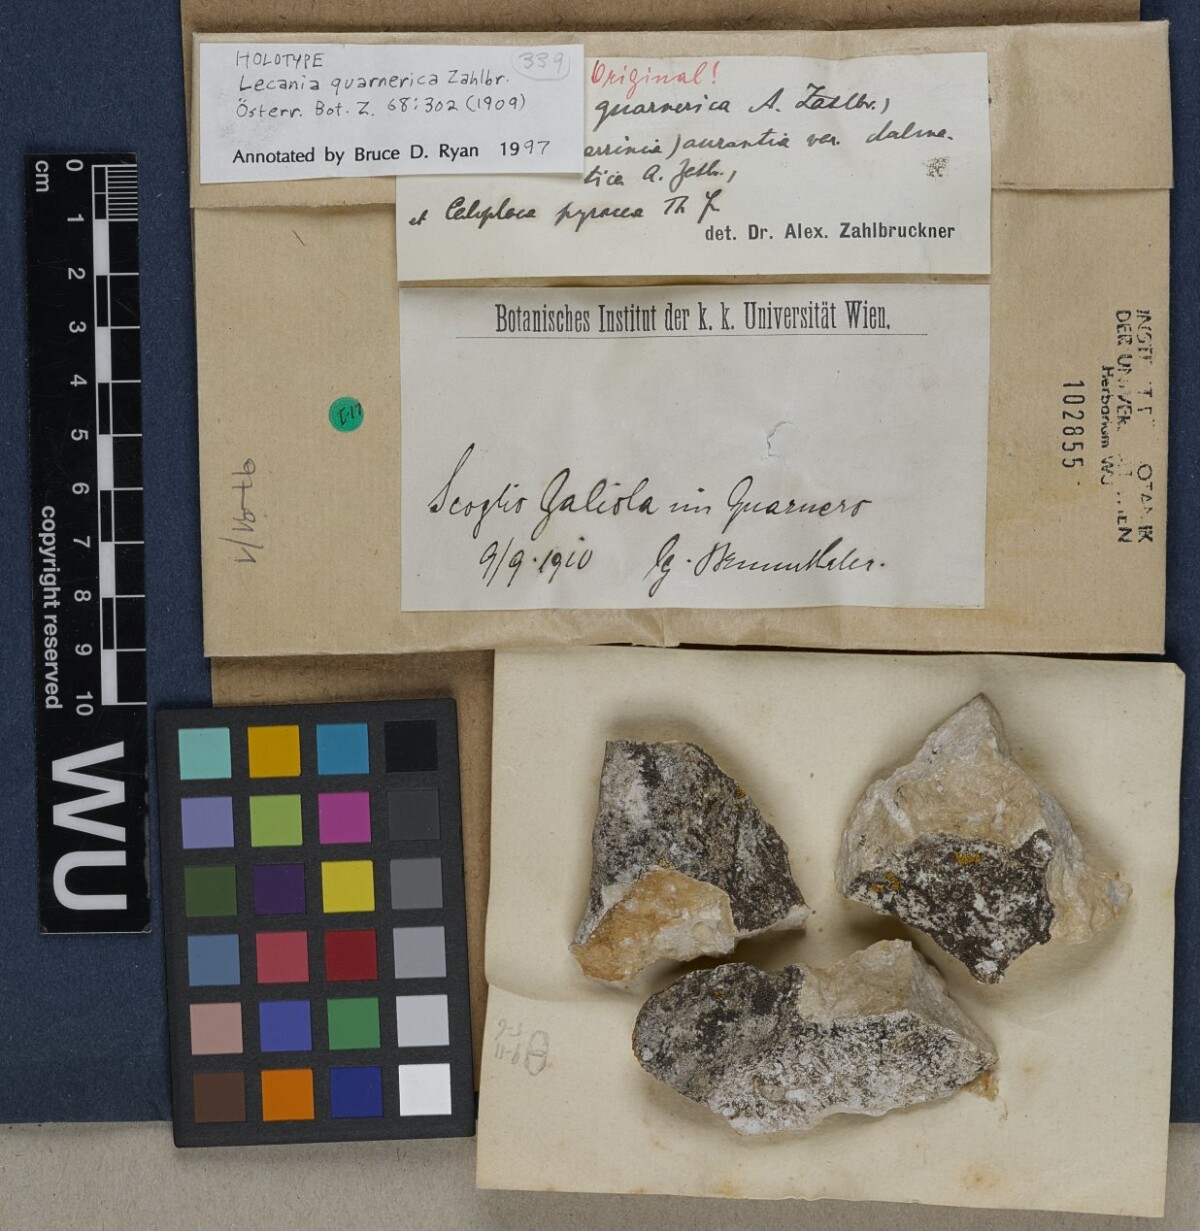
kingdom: Fungi
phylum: Ascomycota
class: Lecanoromycetes
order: Lecanorales
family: Ramalinaceae
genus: Lecania
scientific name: Lecania
